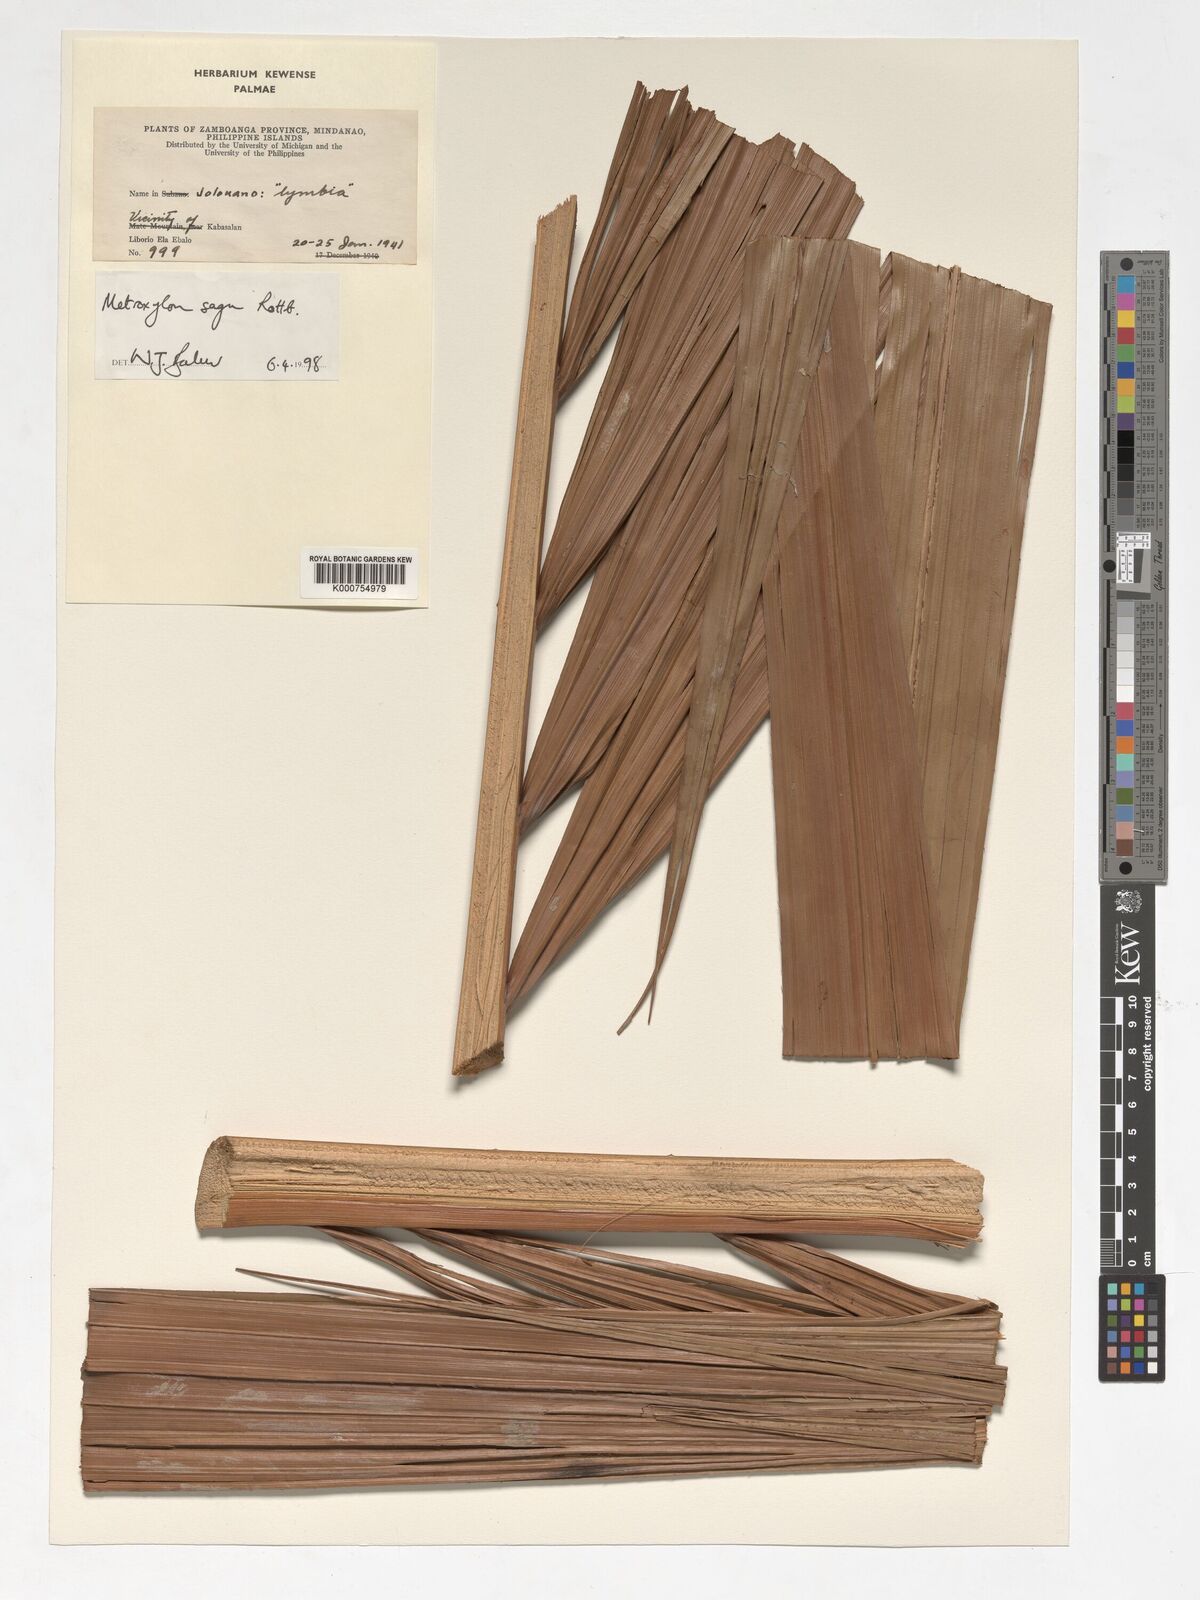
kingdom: Plantae
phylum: Tracheophyta
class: Liliopsida
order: Arecales
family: Arecaceae
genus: Metroxylon
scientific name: Metroxylon sagu
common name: Sago palm
